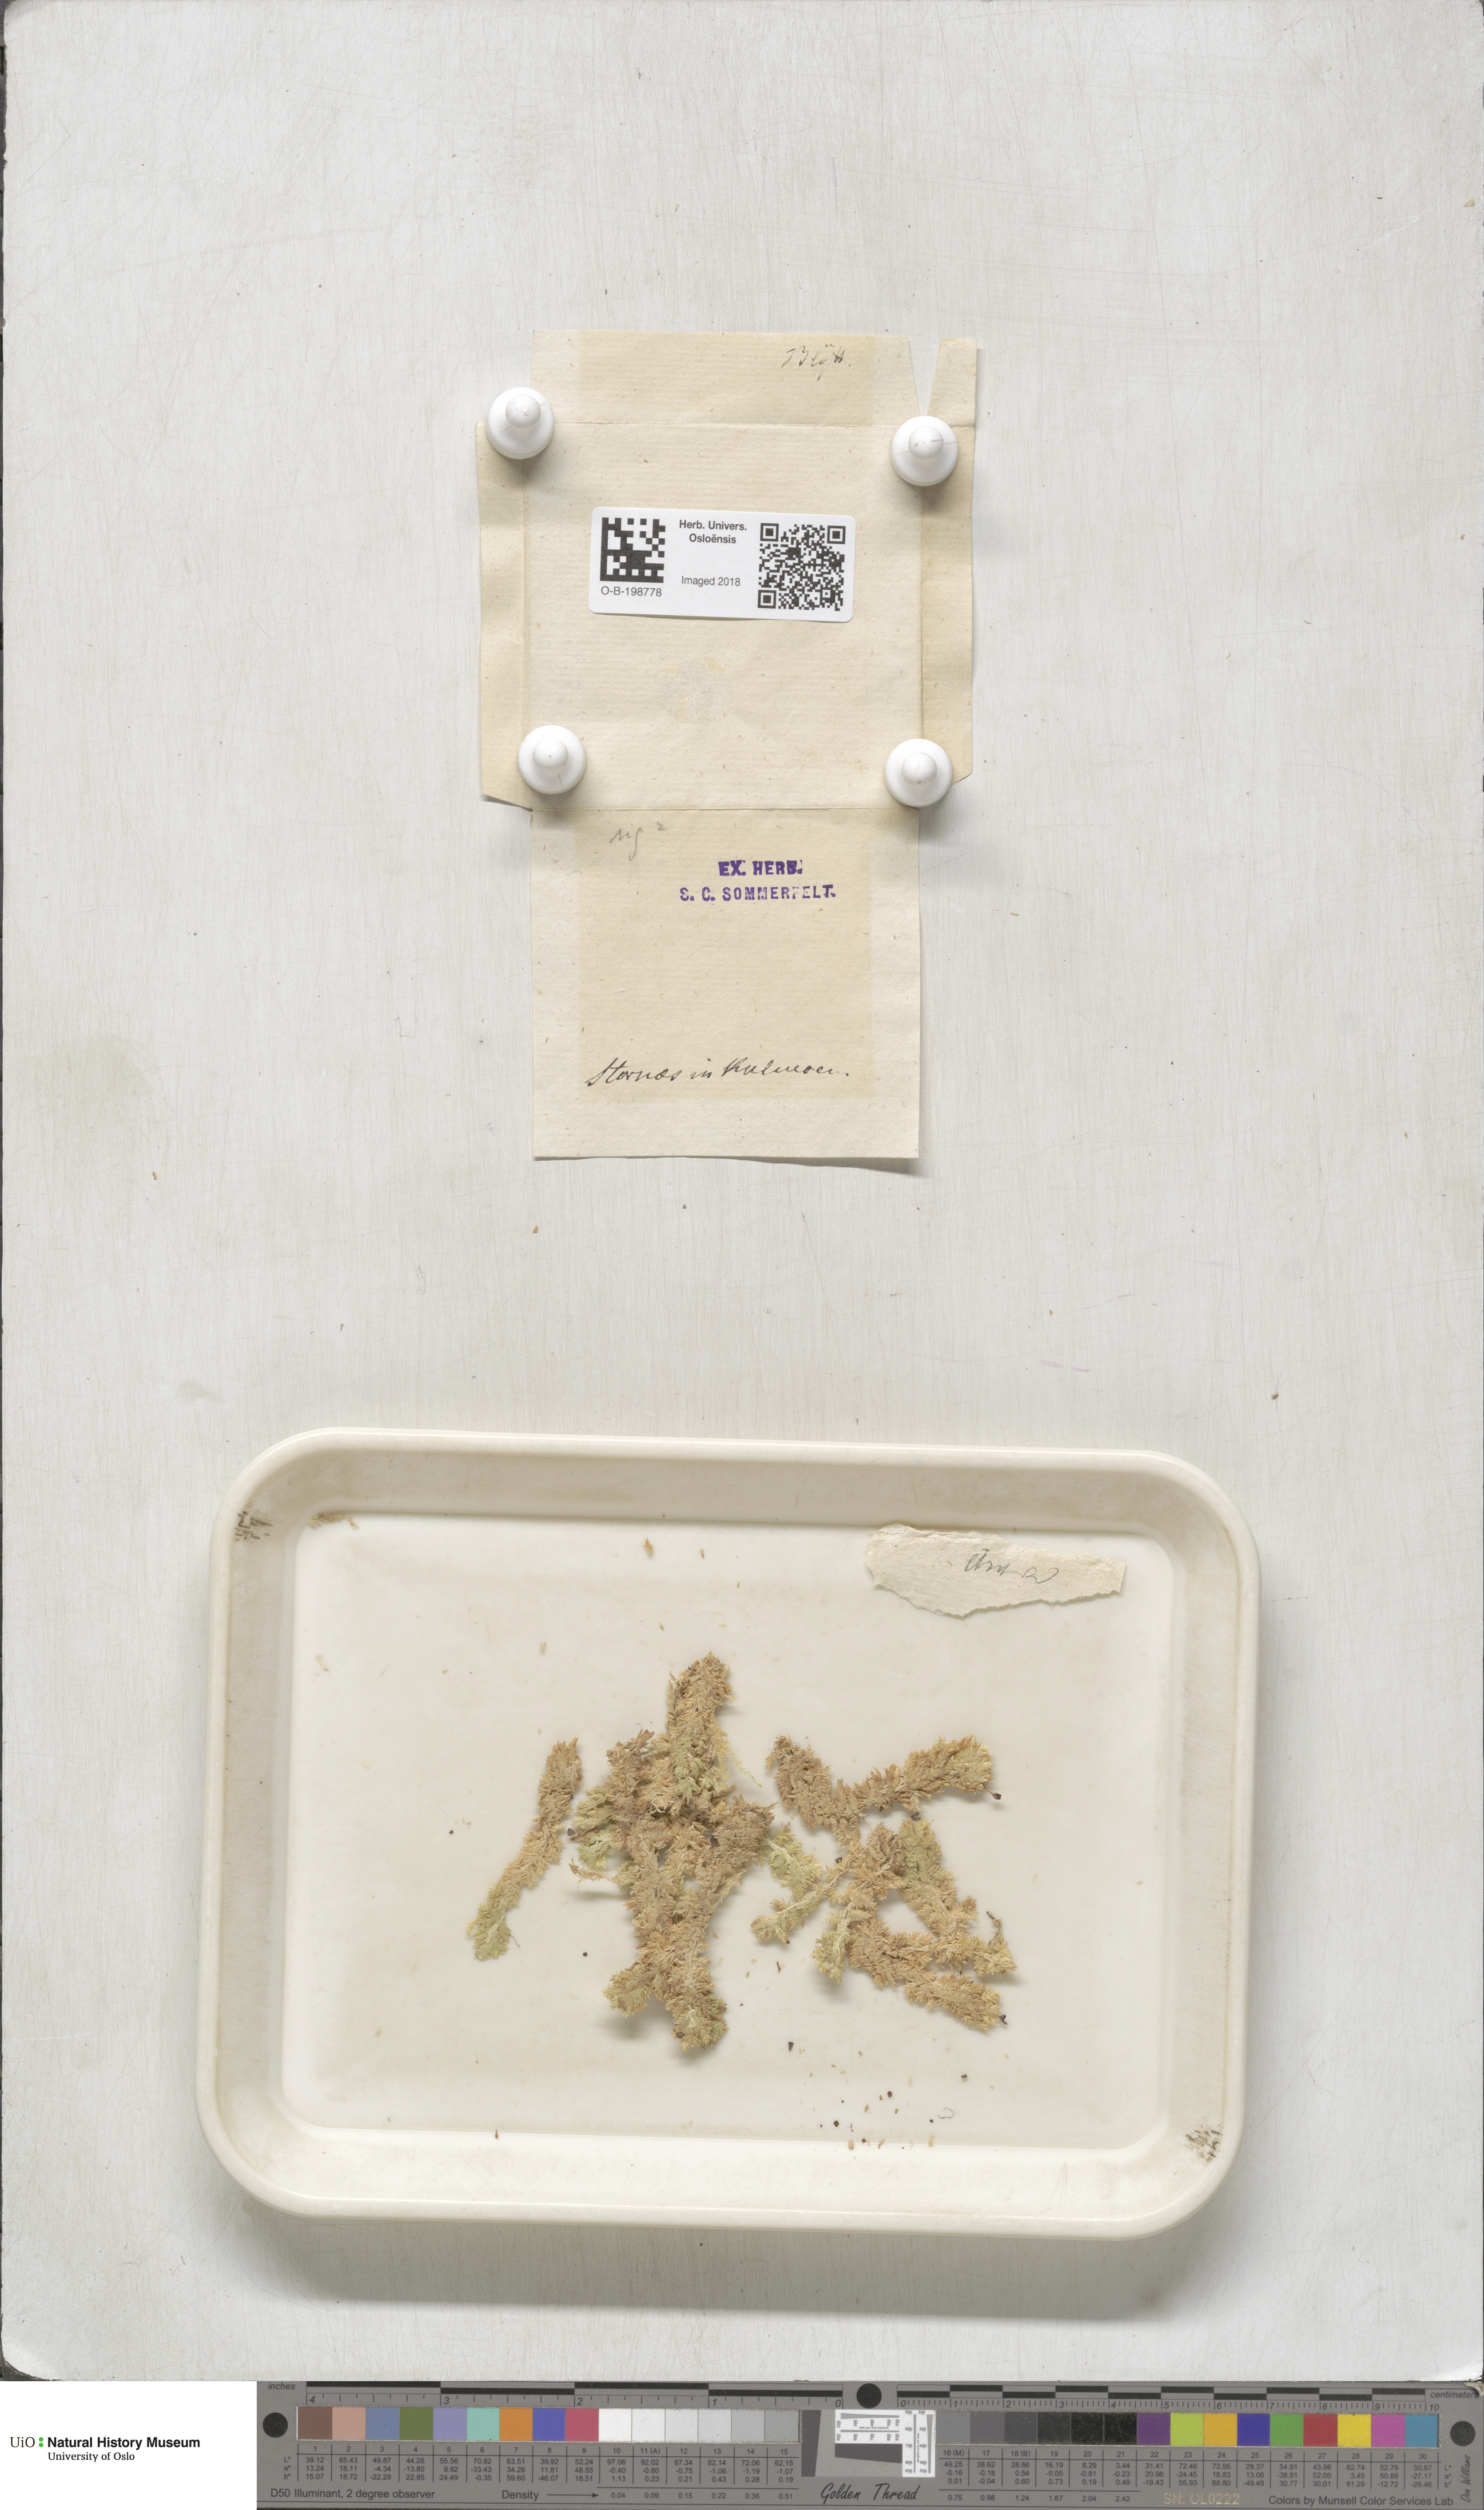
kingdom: Plantae
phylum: Bryophyta
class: Sphagnopsida
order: Sphagnales
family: Sphagnaceae
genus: Sphagnum
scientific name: Sphagnum compactum
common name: Compact peat moss
